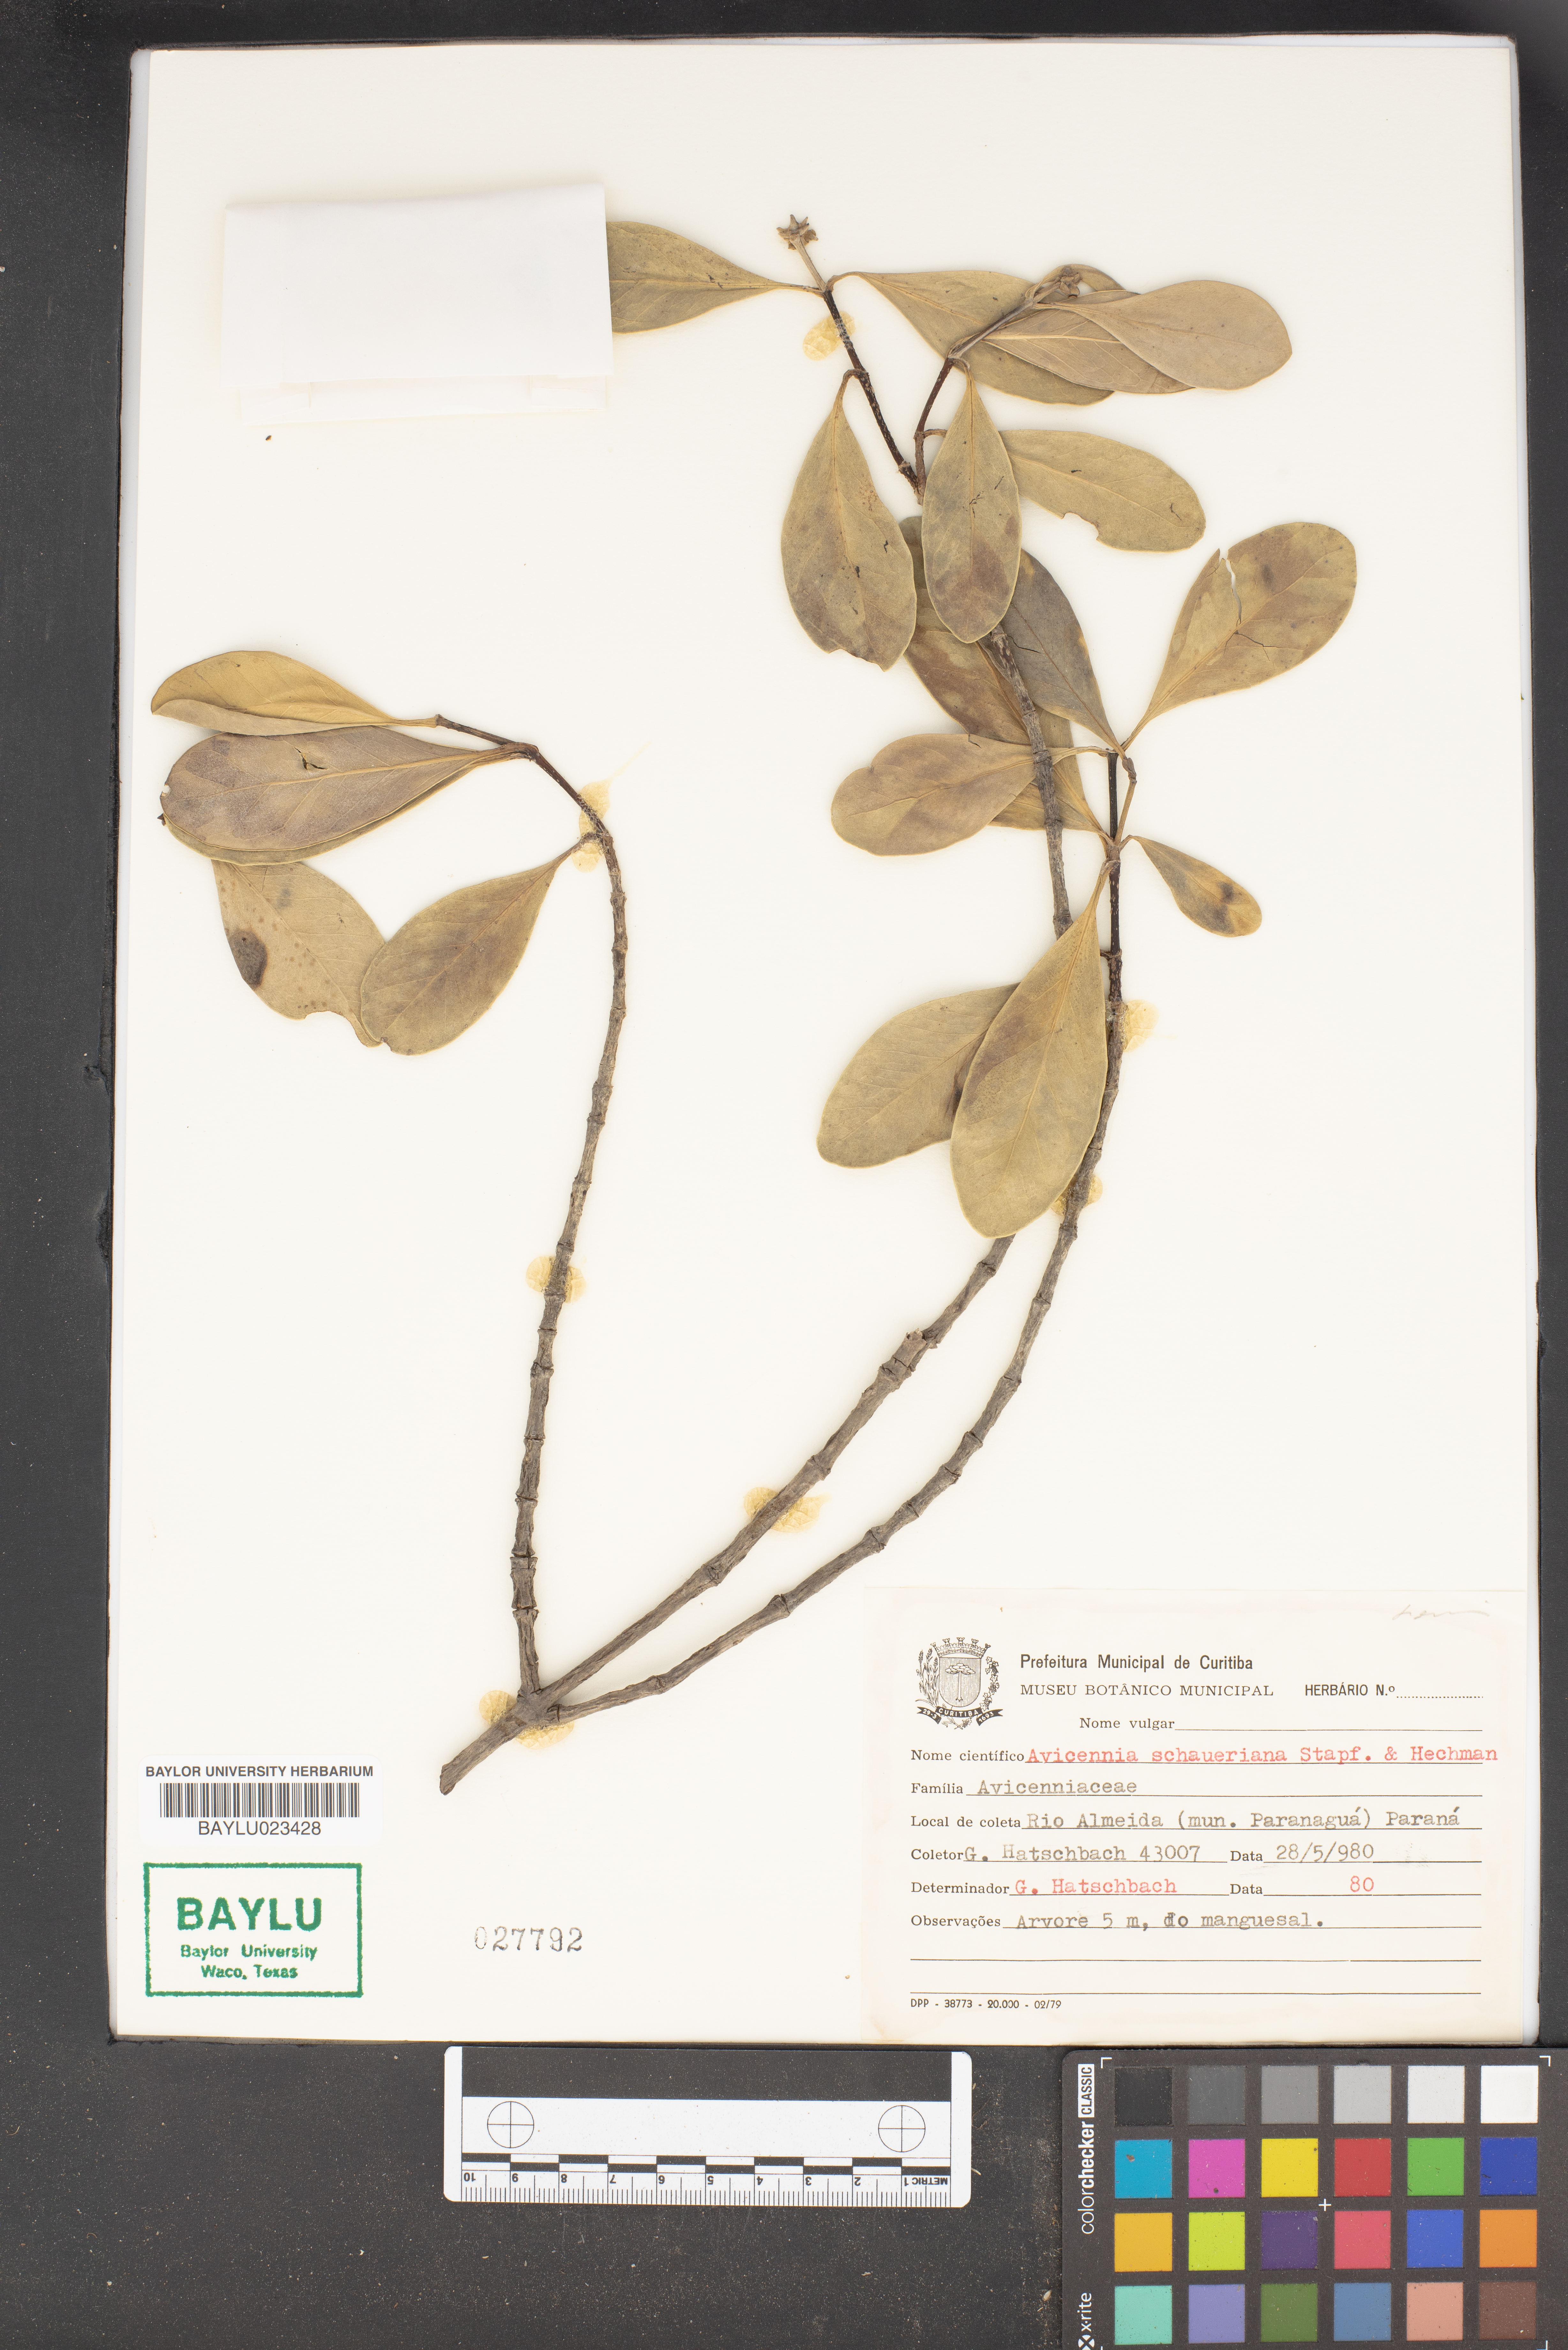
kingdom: Plantae
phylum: Tracheophyta
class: Magnoliopsida
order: Lamiales
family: Acanthaceae
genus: Avicennia
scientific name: Avicennia schaueriana
